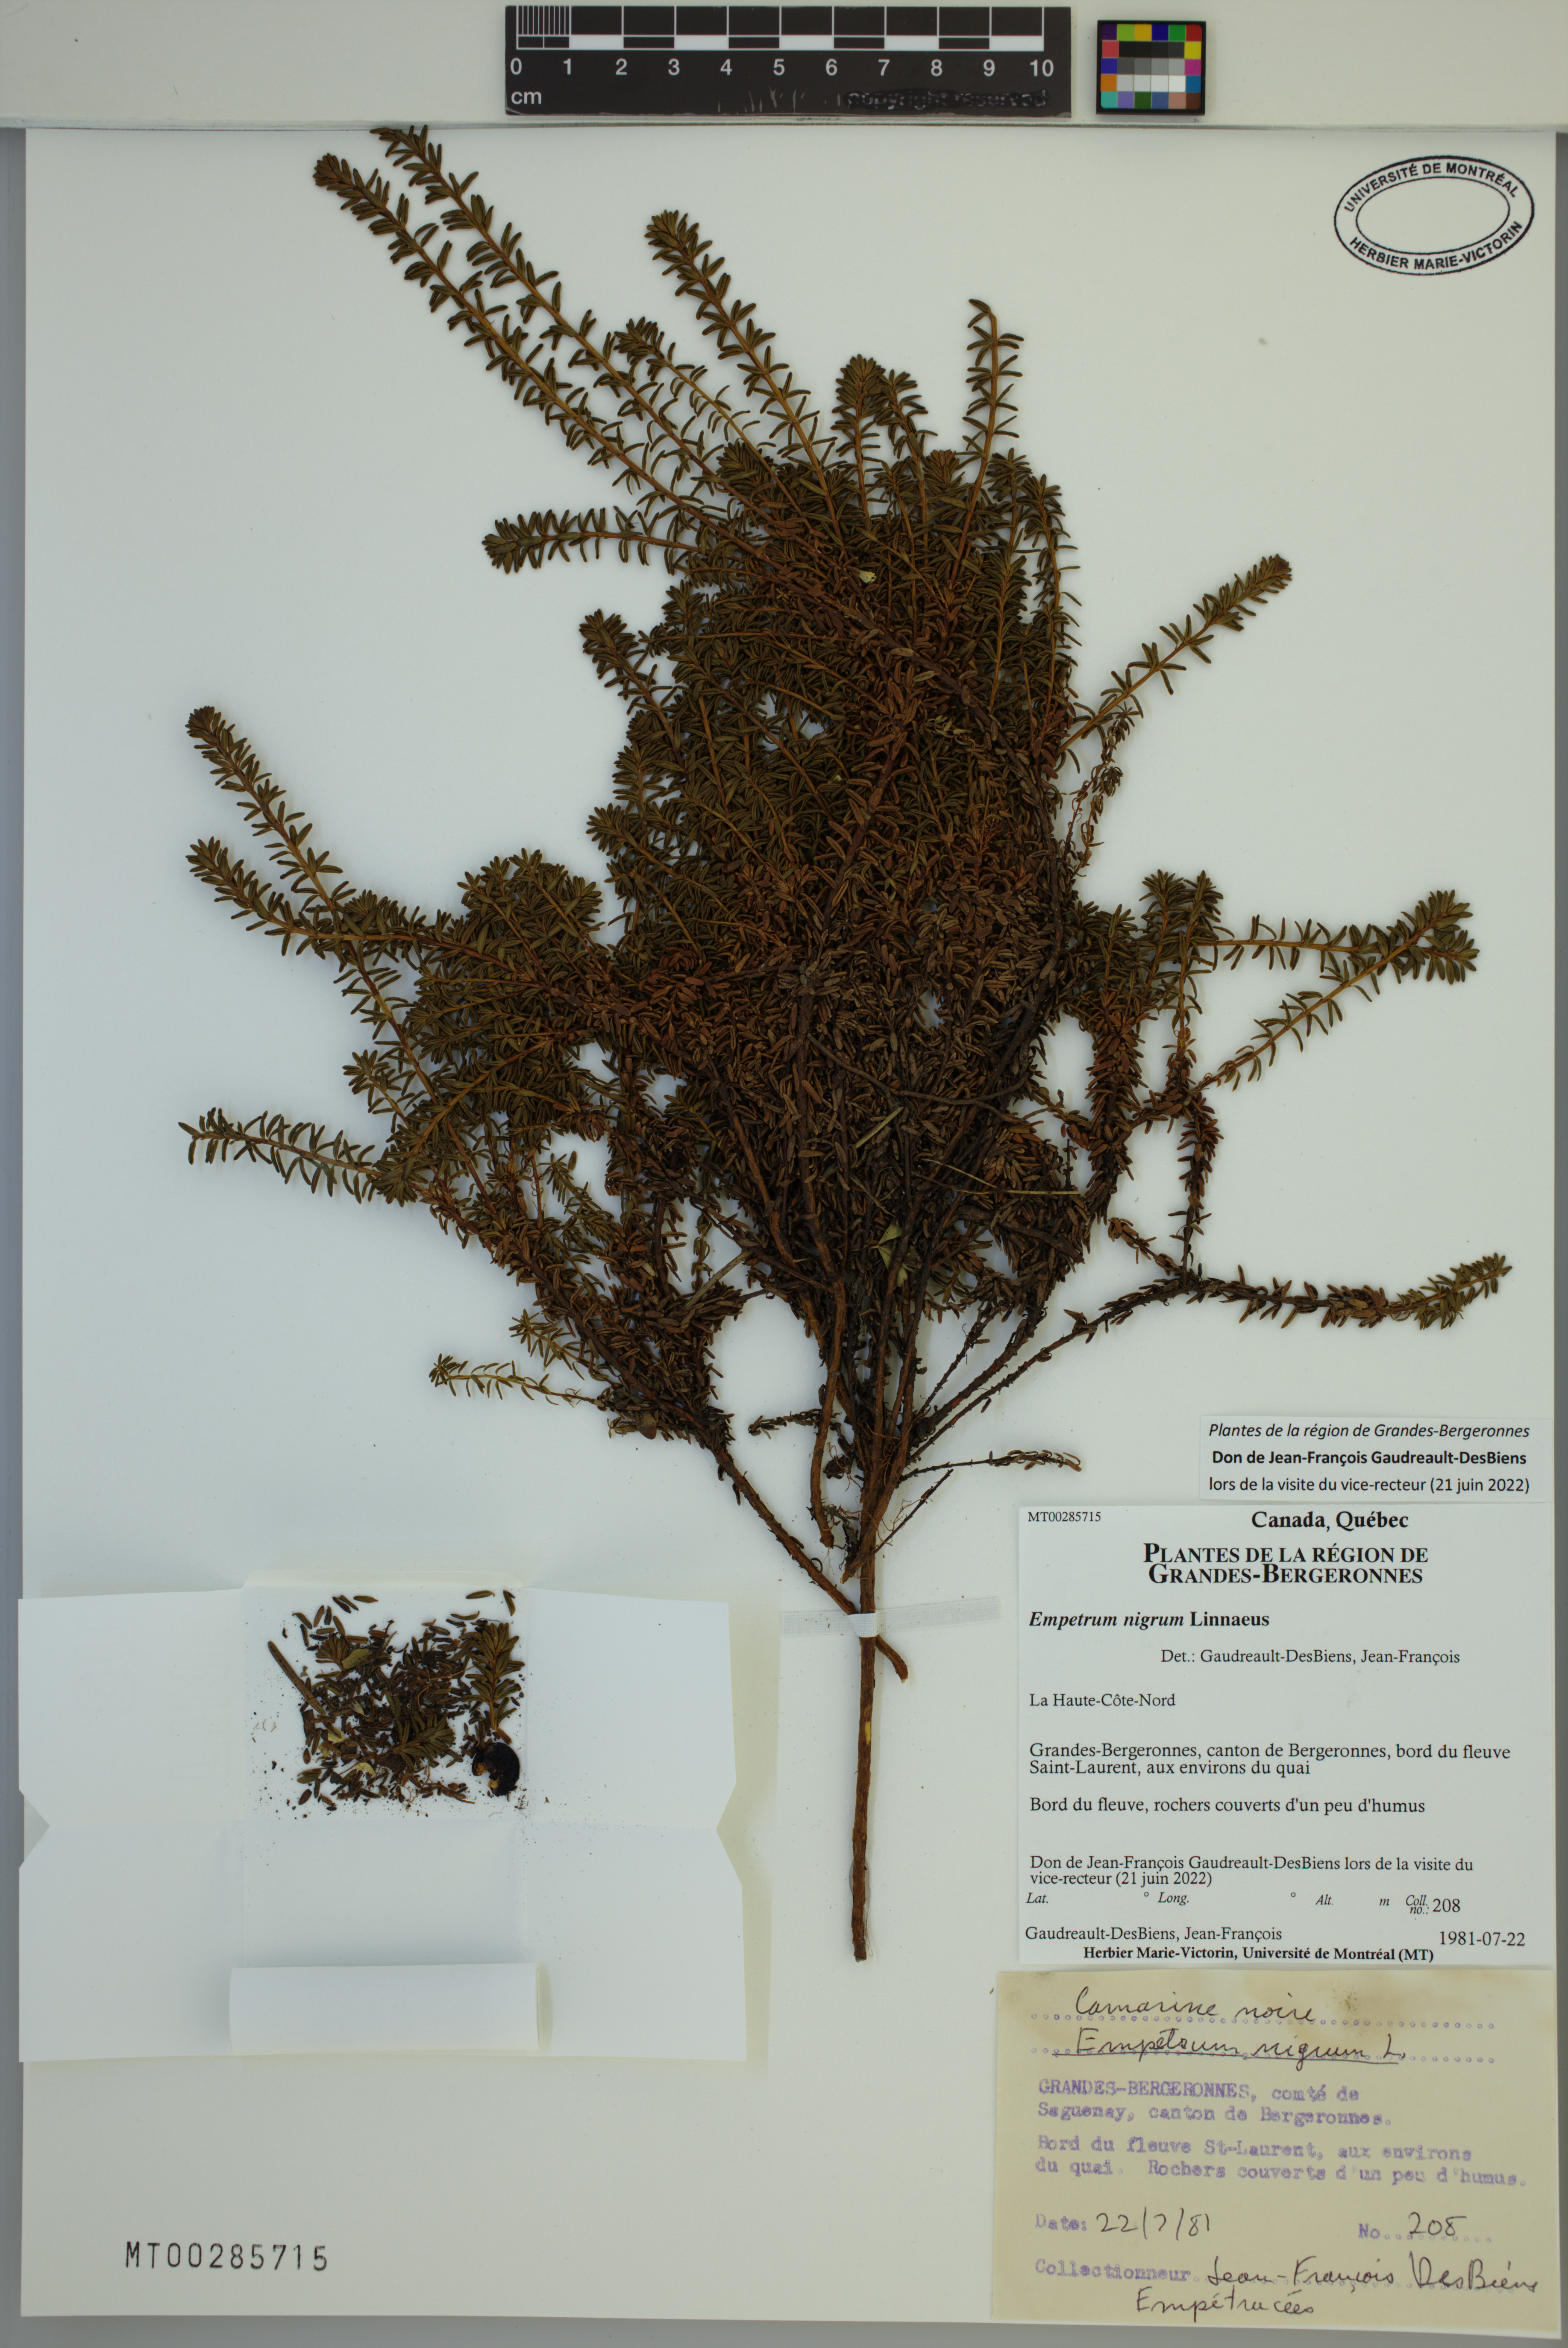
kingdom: Plantae
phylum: Tracheophyta
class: Magnoliopsida
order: Ericales
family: Ericaceae
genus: Empetrum
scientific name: Empetrum nigrum
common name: Black crowberry
